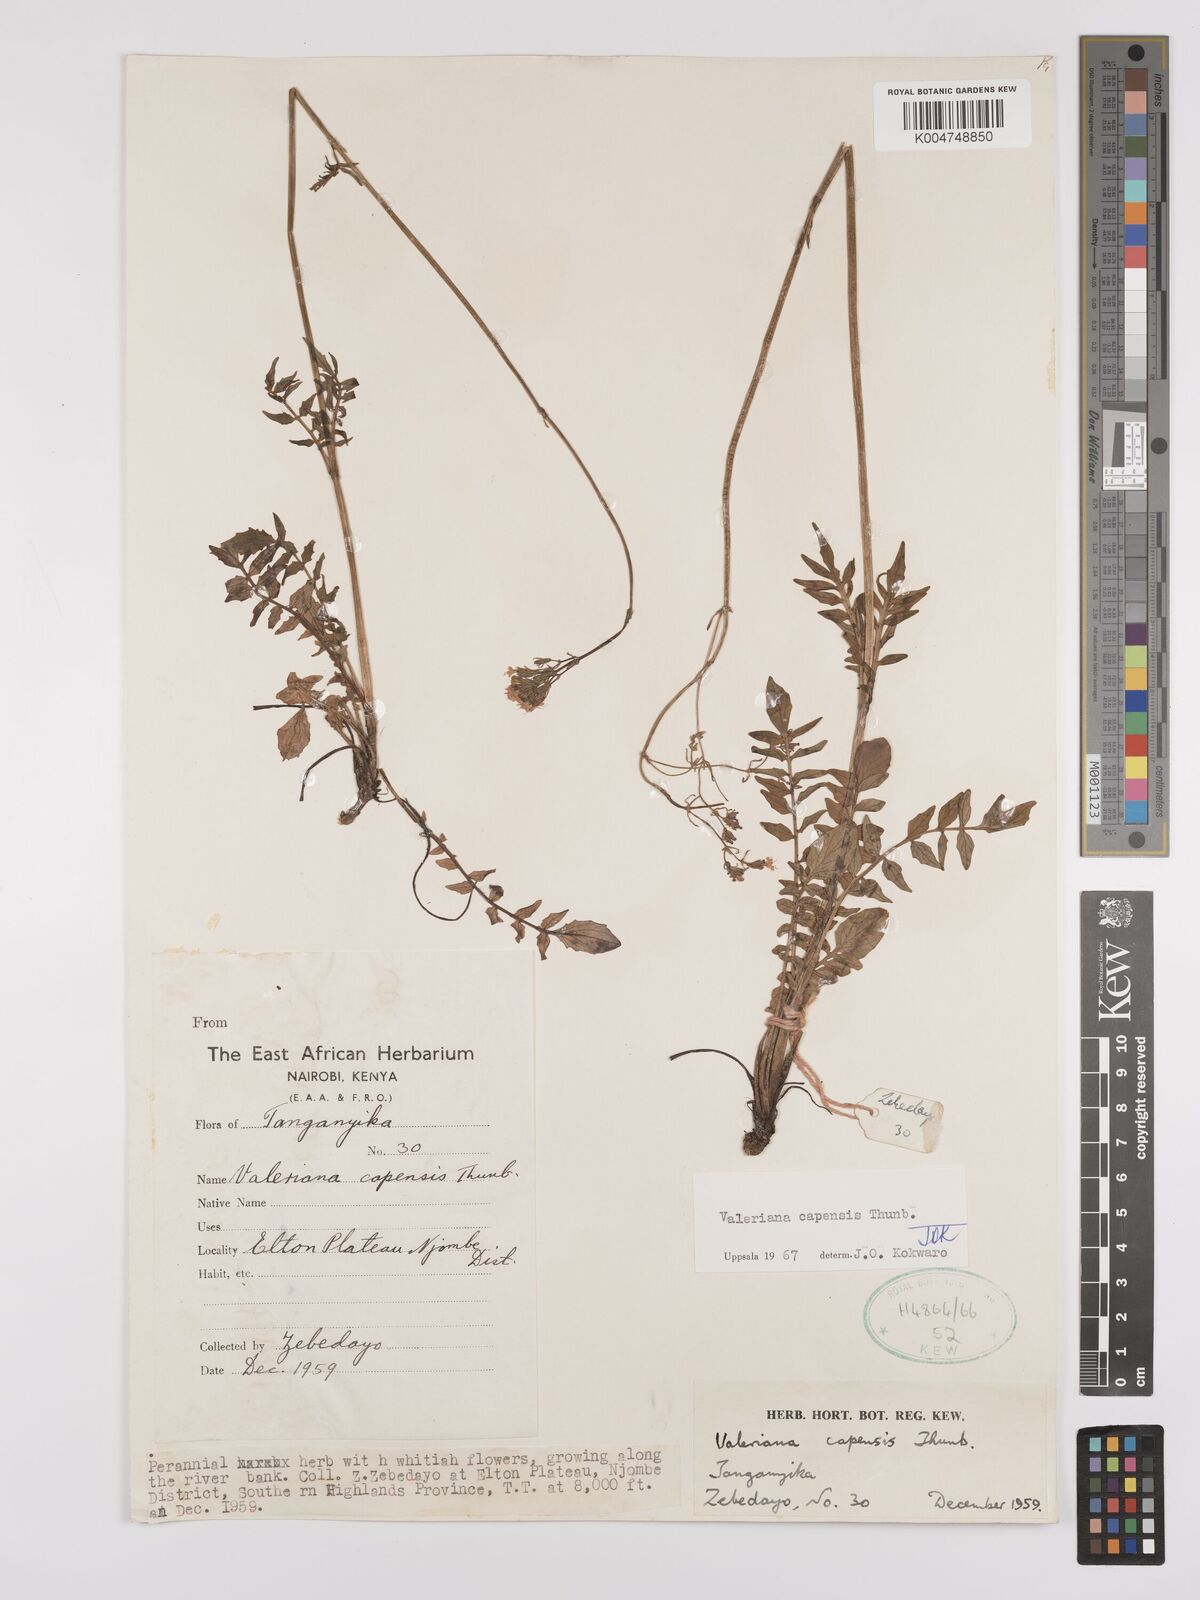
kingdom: Plantae
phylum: Tracheophyta
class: Magnoliopsida
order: Dipsacales
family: Caprifoliaceae
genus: Valeriana
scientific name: Valeriana capensis
